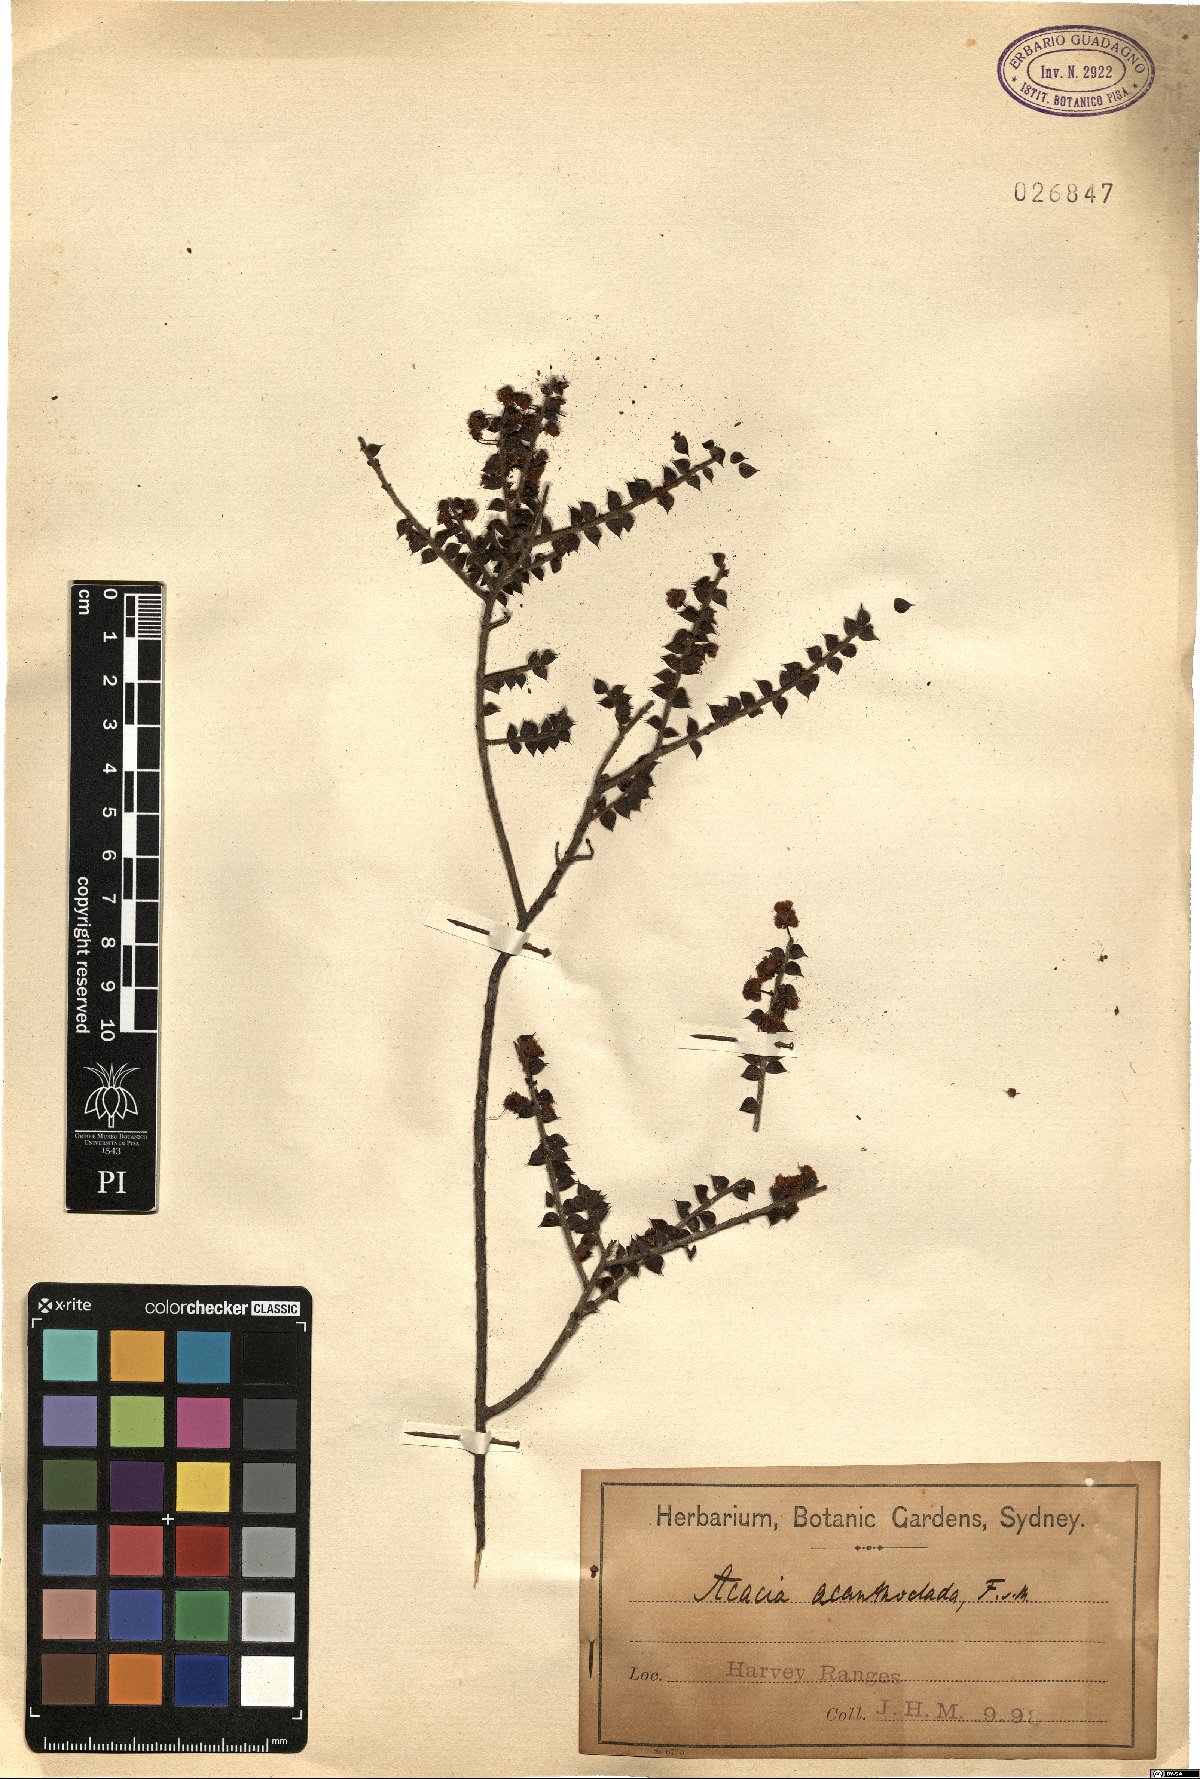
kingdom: Plantae
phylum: Tracheophyta
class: Magnoliopsida
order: Fabales
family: Fabaceae
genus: Acacia
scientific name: Acacia acanthoclada
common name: Harrow wattle
